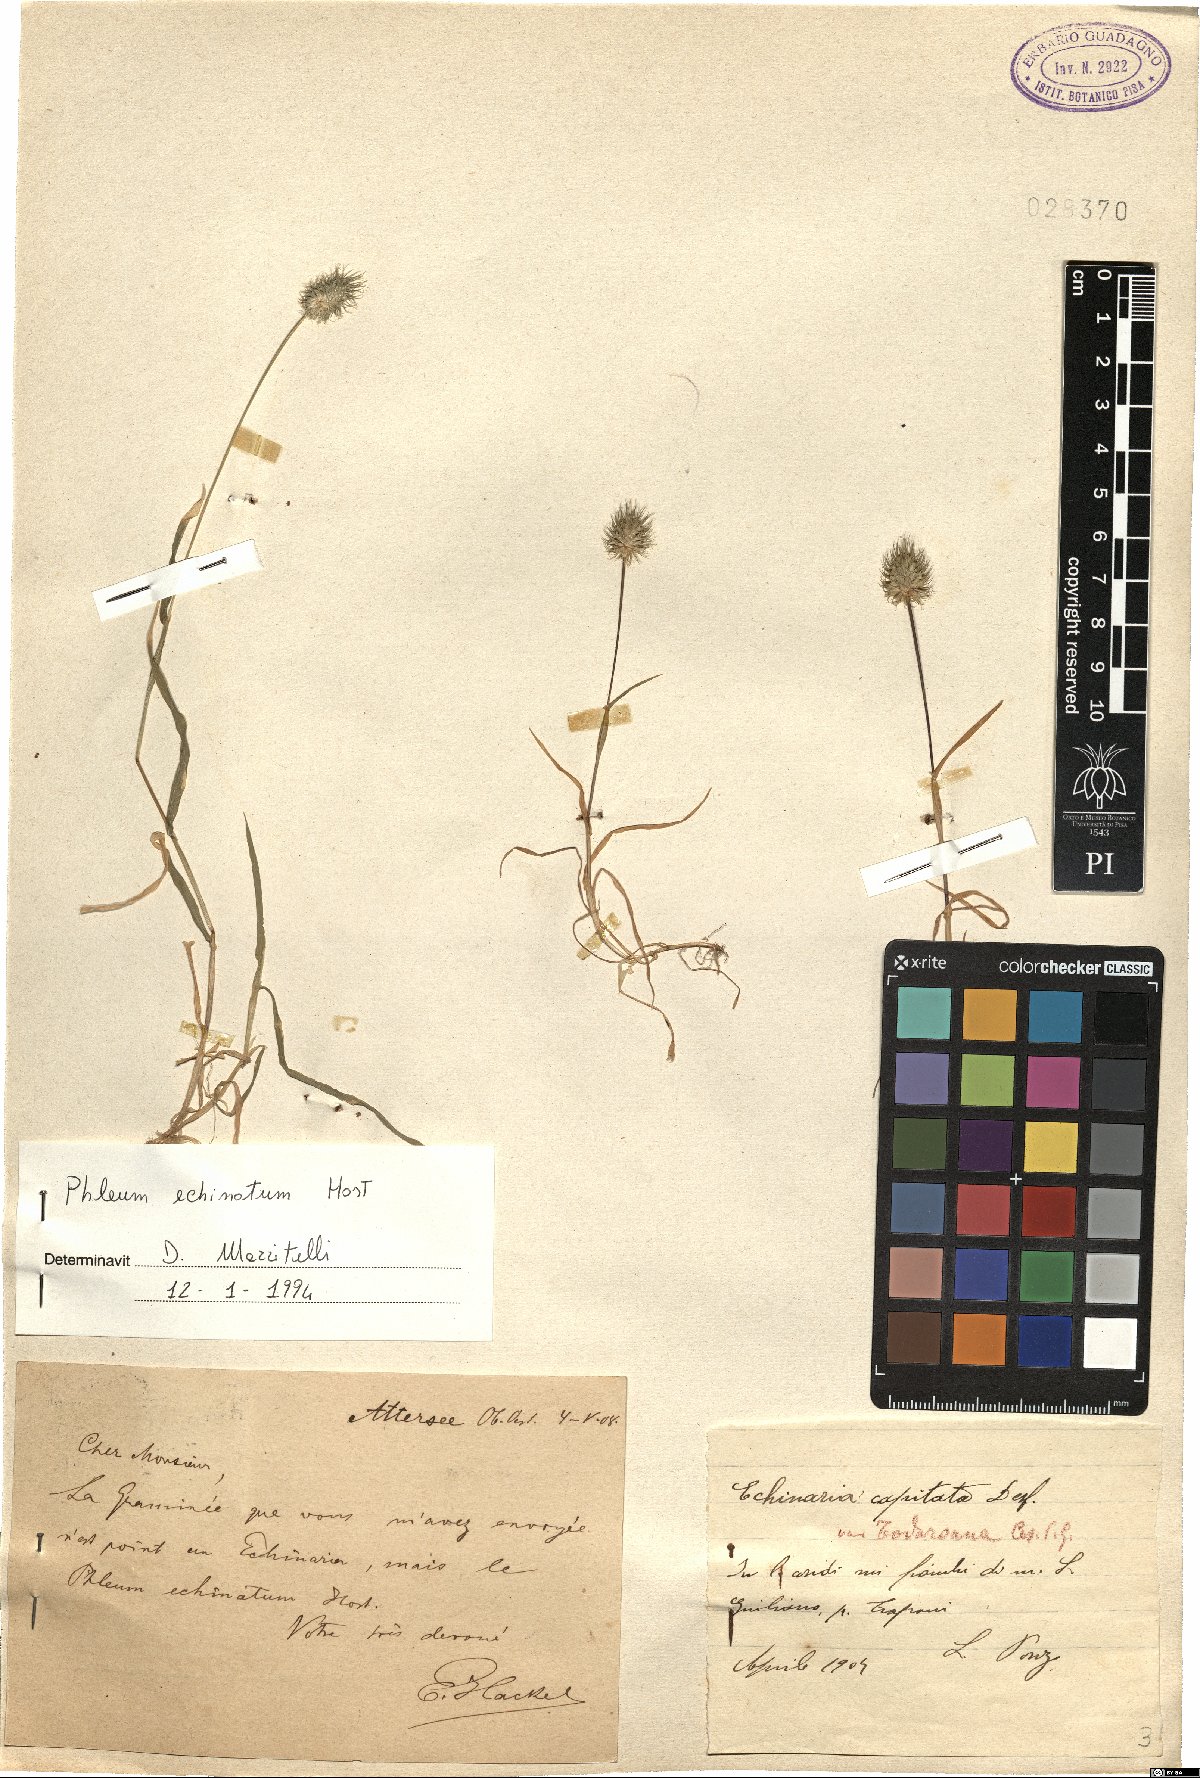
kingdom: Plantae
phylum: Tracheophyta
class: Liliopsida
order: Poales
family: Poaceae
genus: Phleum
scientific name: Phleum echinatum
